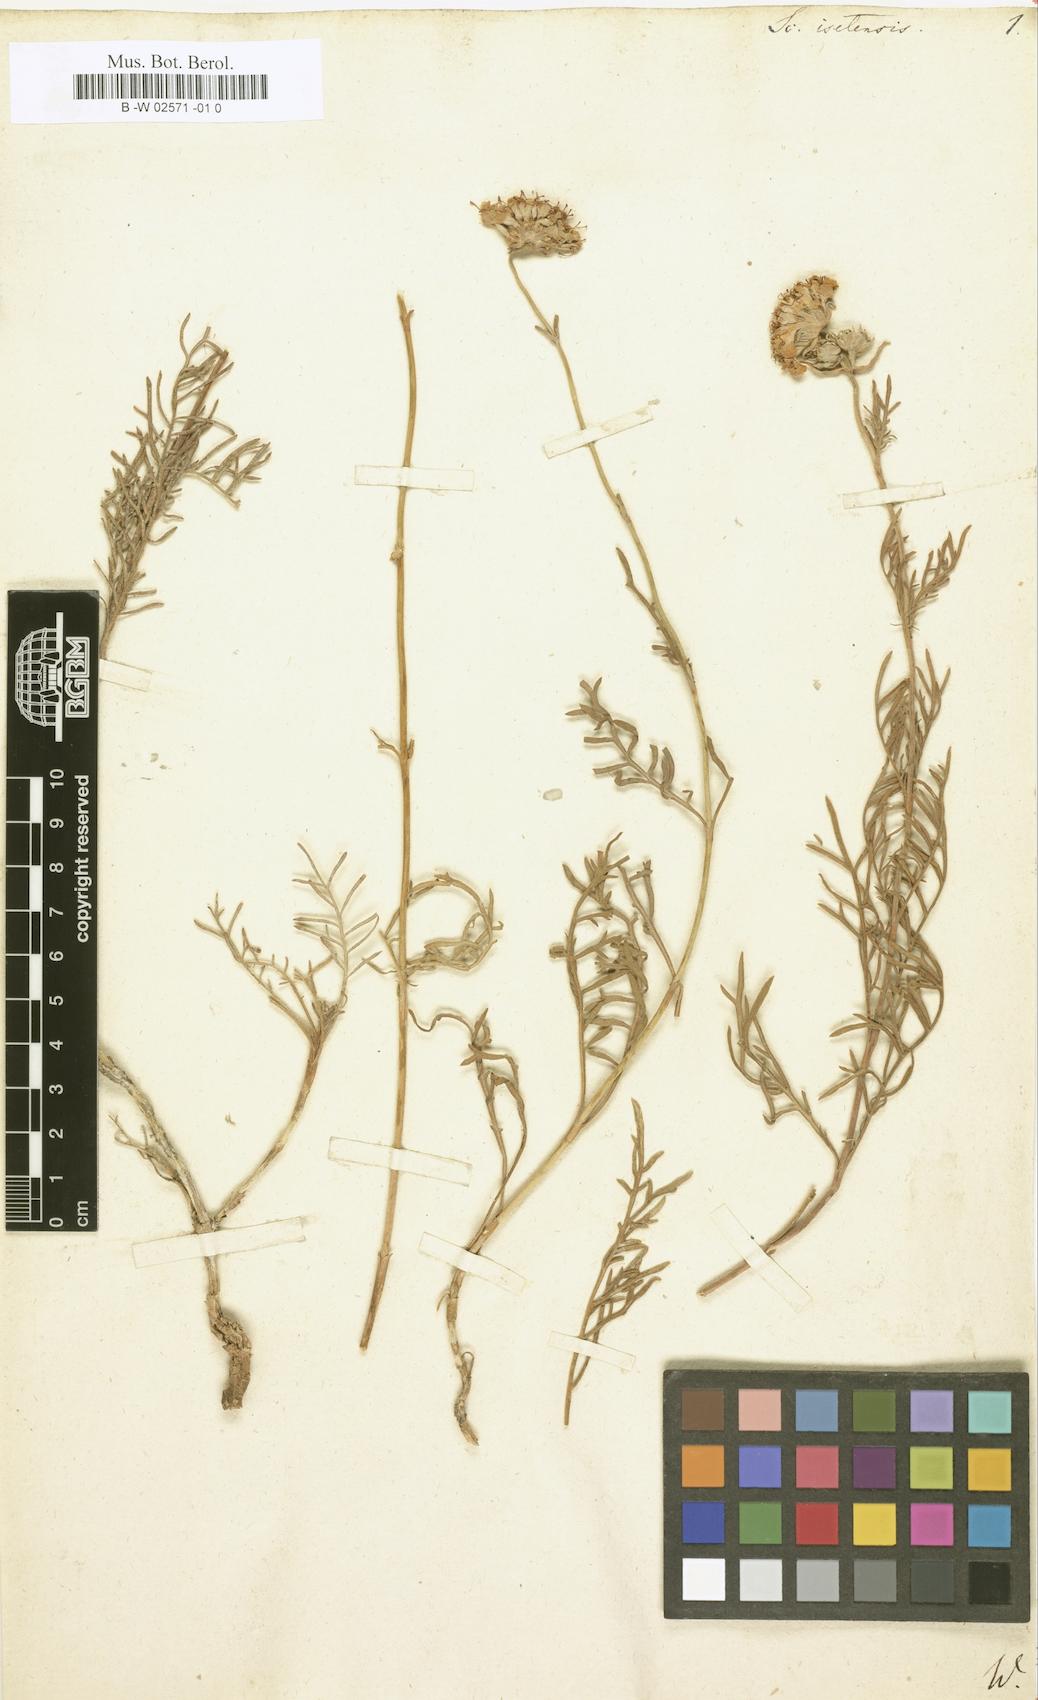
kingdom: Plantae
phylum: Tracheophyta
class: Magnoliopsida
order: Dipsacales
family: Caprifoliaceae
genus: Lomelosia
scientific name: Lomelosia
